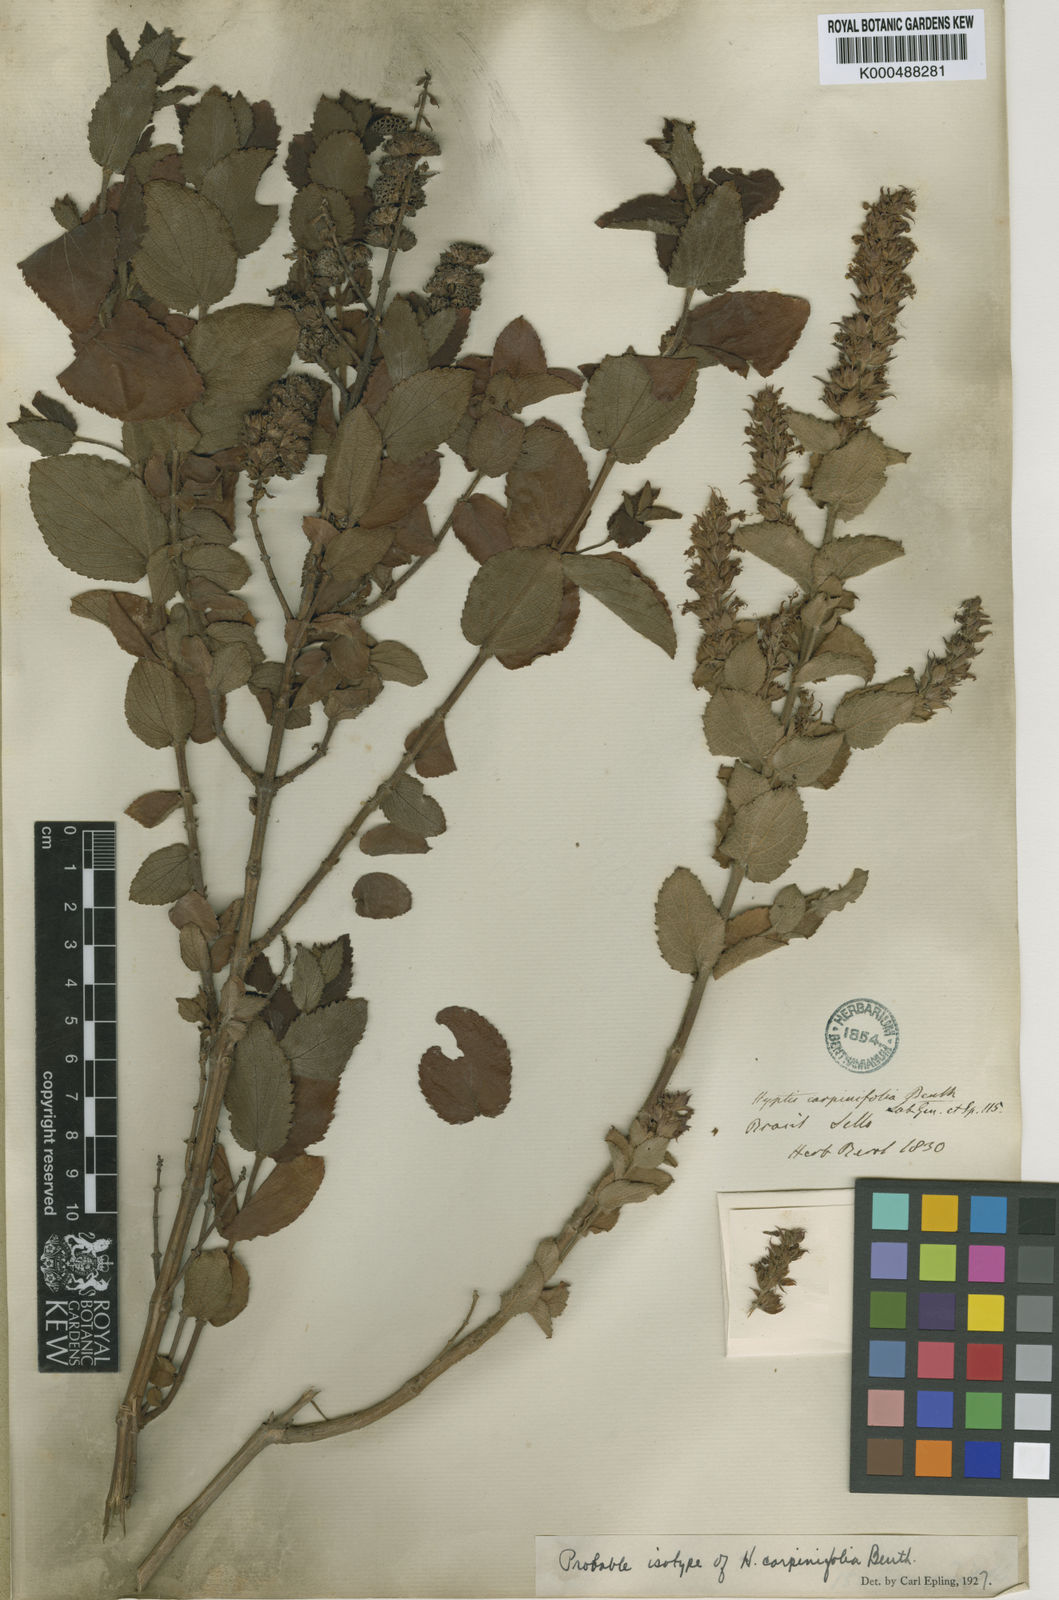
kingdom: Plantae
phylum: Tracheophyta
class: Magnoliopsida
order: Lamiales
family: Lamiaceae
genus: Cantinoa
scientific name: Cantinoa carpinifolia
